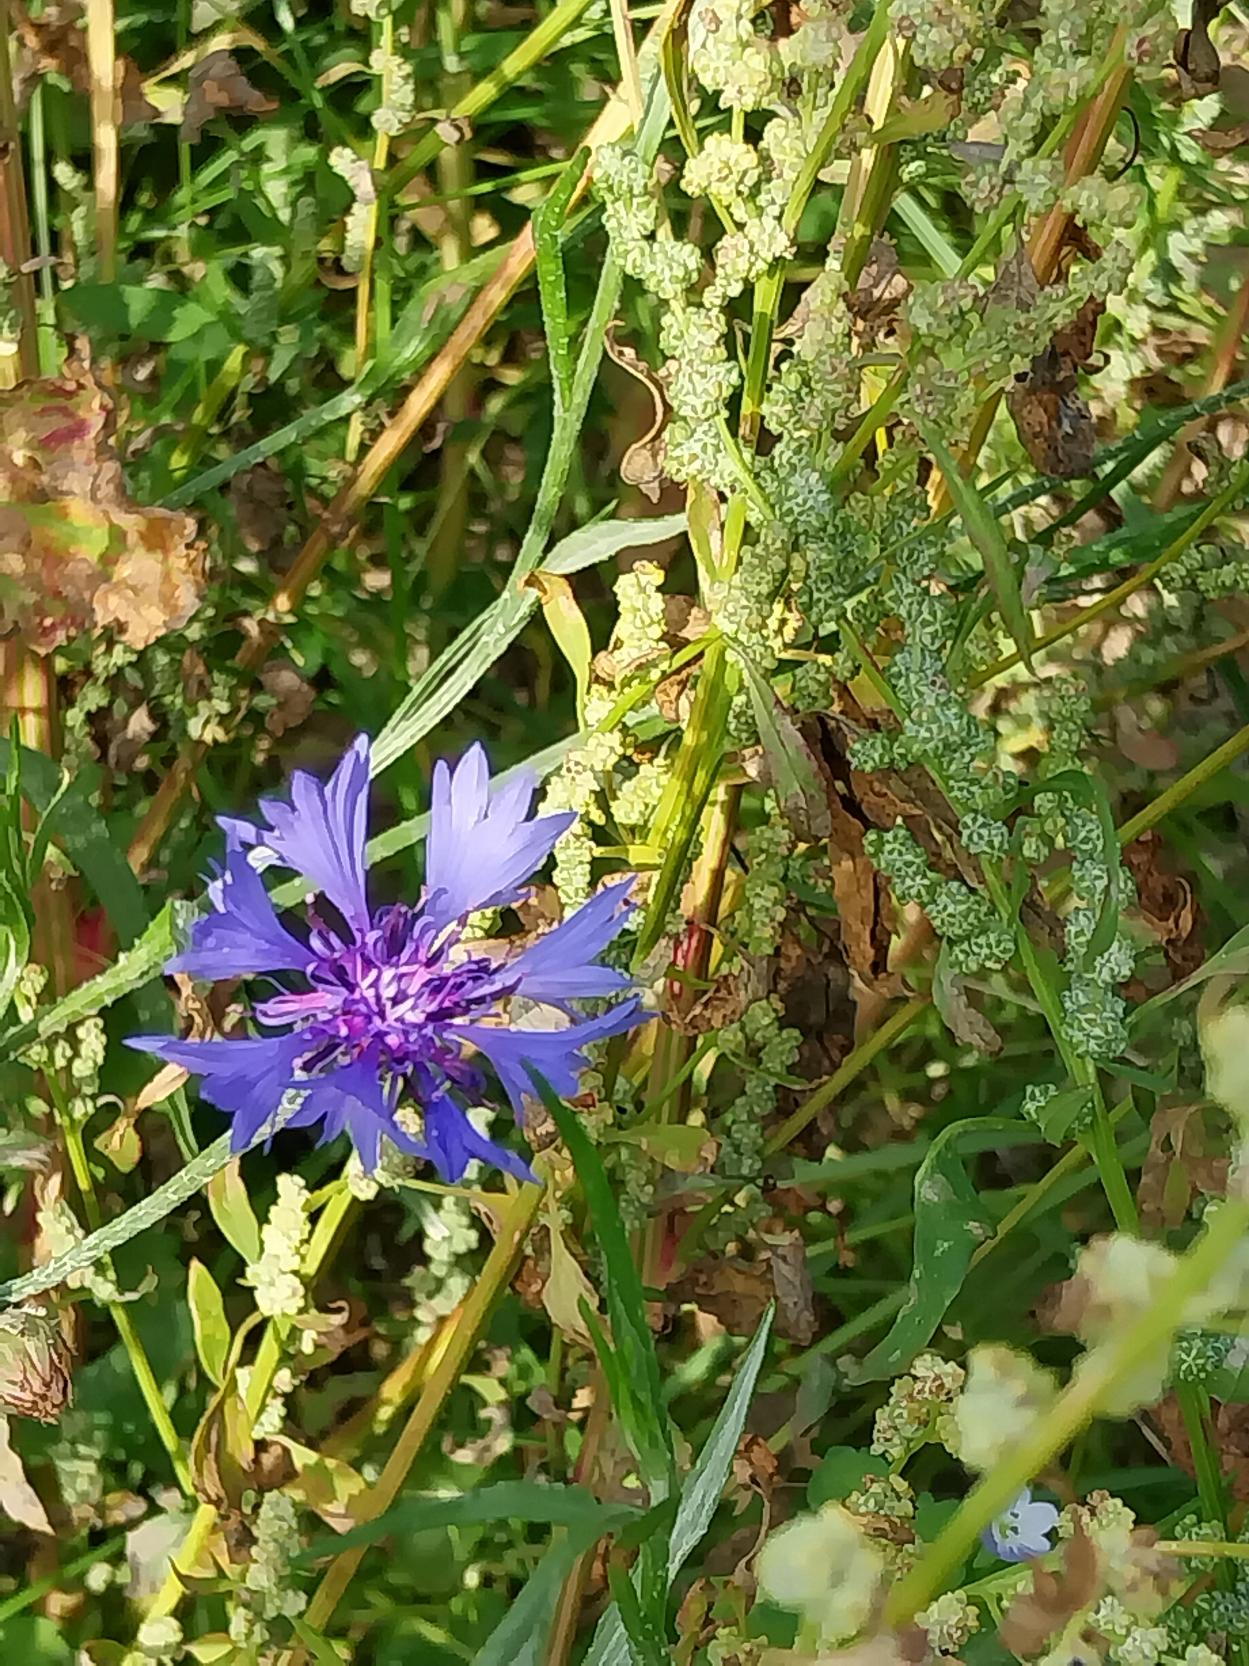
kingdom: Plantae
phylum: Tracheophyta
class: Magnoliopsida
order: Asterales
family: Asteraceae
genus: Centaurea
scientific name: Centaurea cyanus
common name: Kornblomst
